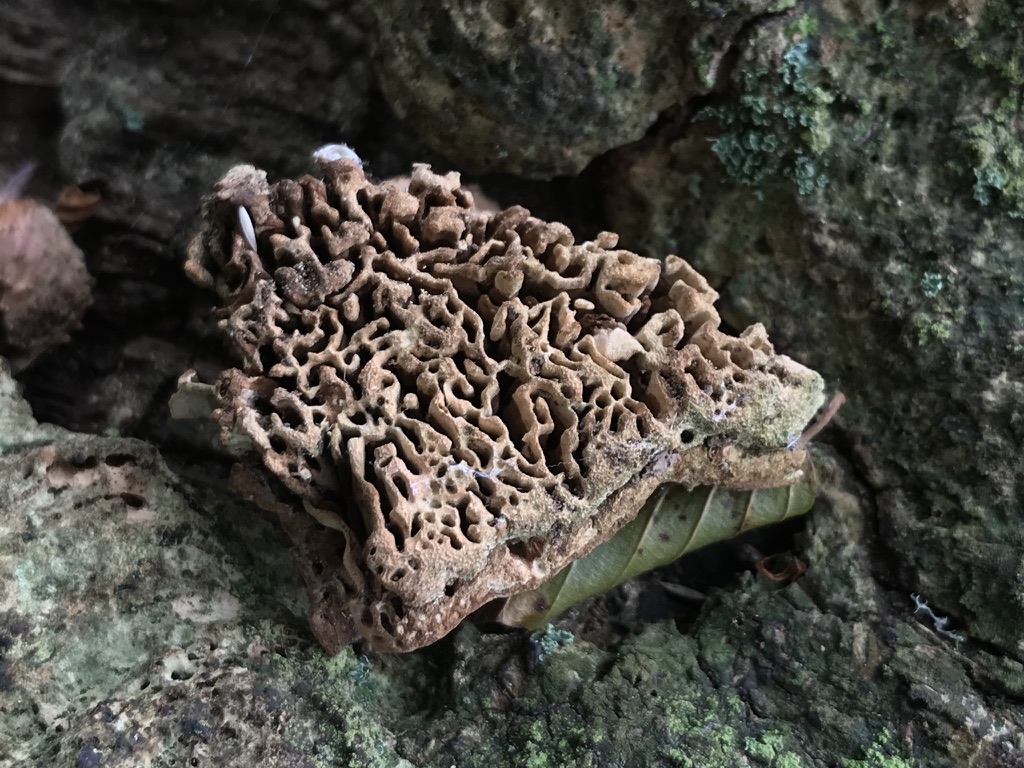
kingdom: Fungi
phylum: Basidiomycota
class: Agaricomycetes
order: Polyporales
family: Fomitopsidaceae
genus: Daedalea
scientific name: Daedalea quercina
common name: ege-labyrintsvamp
